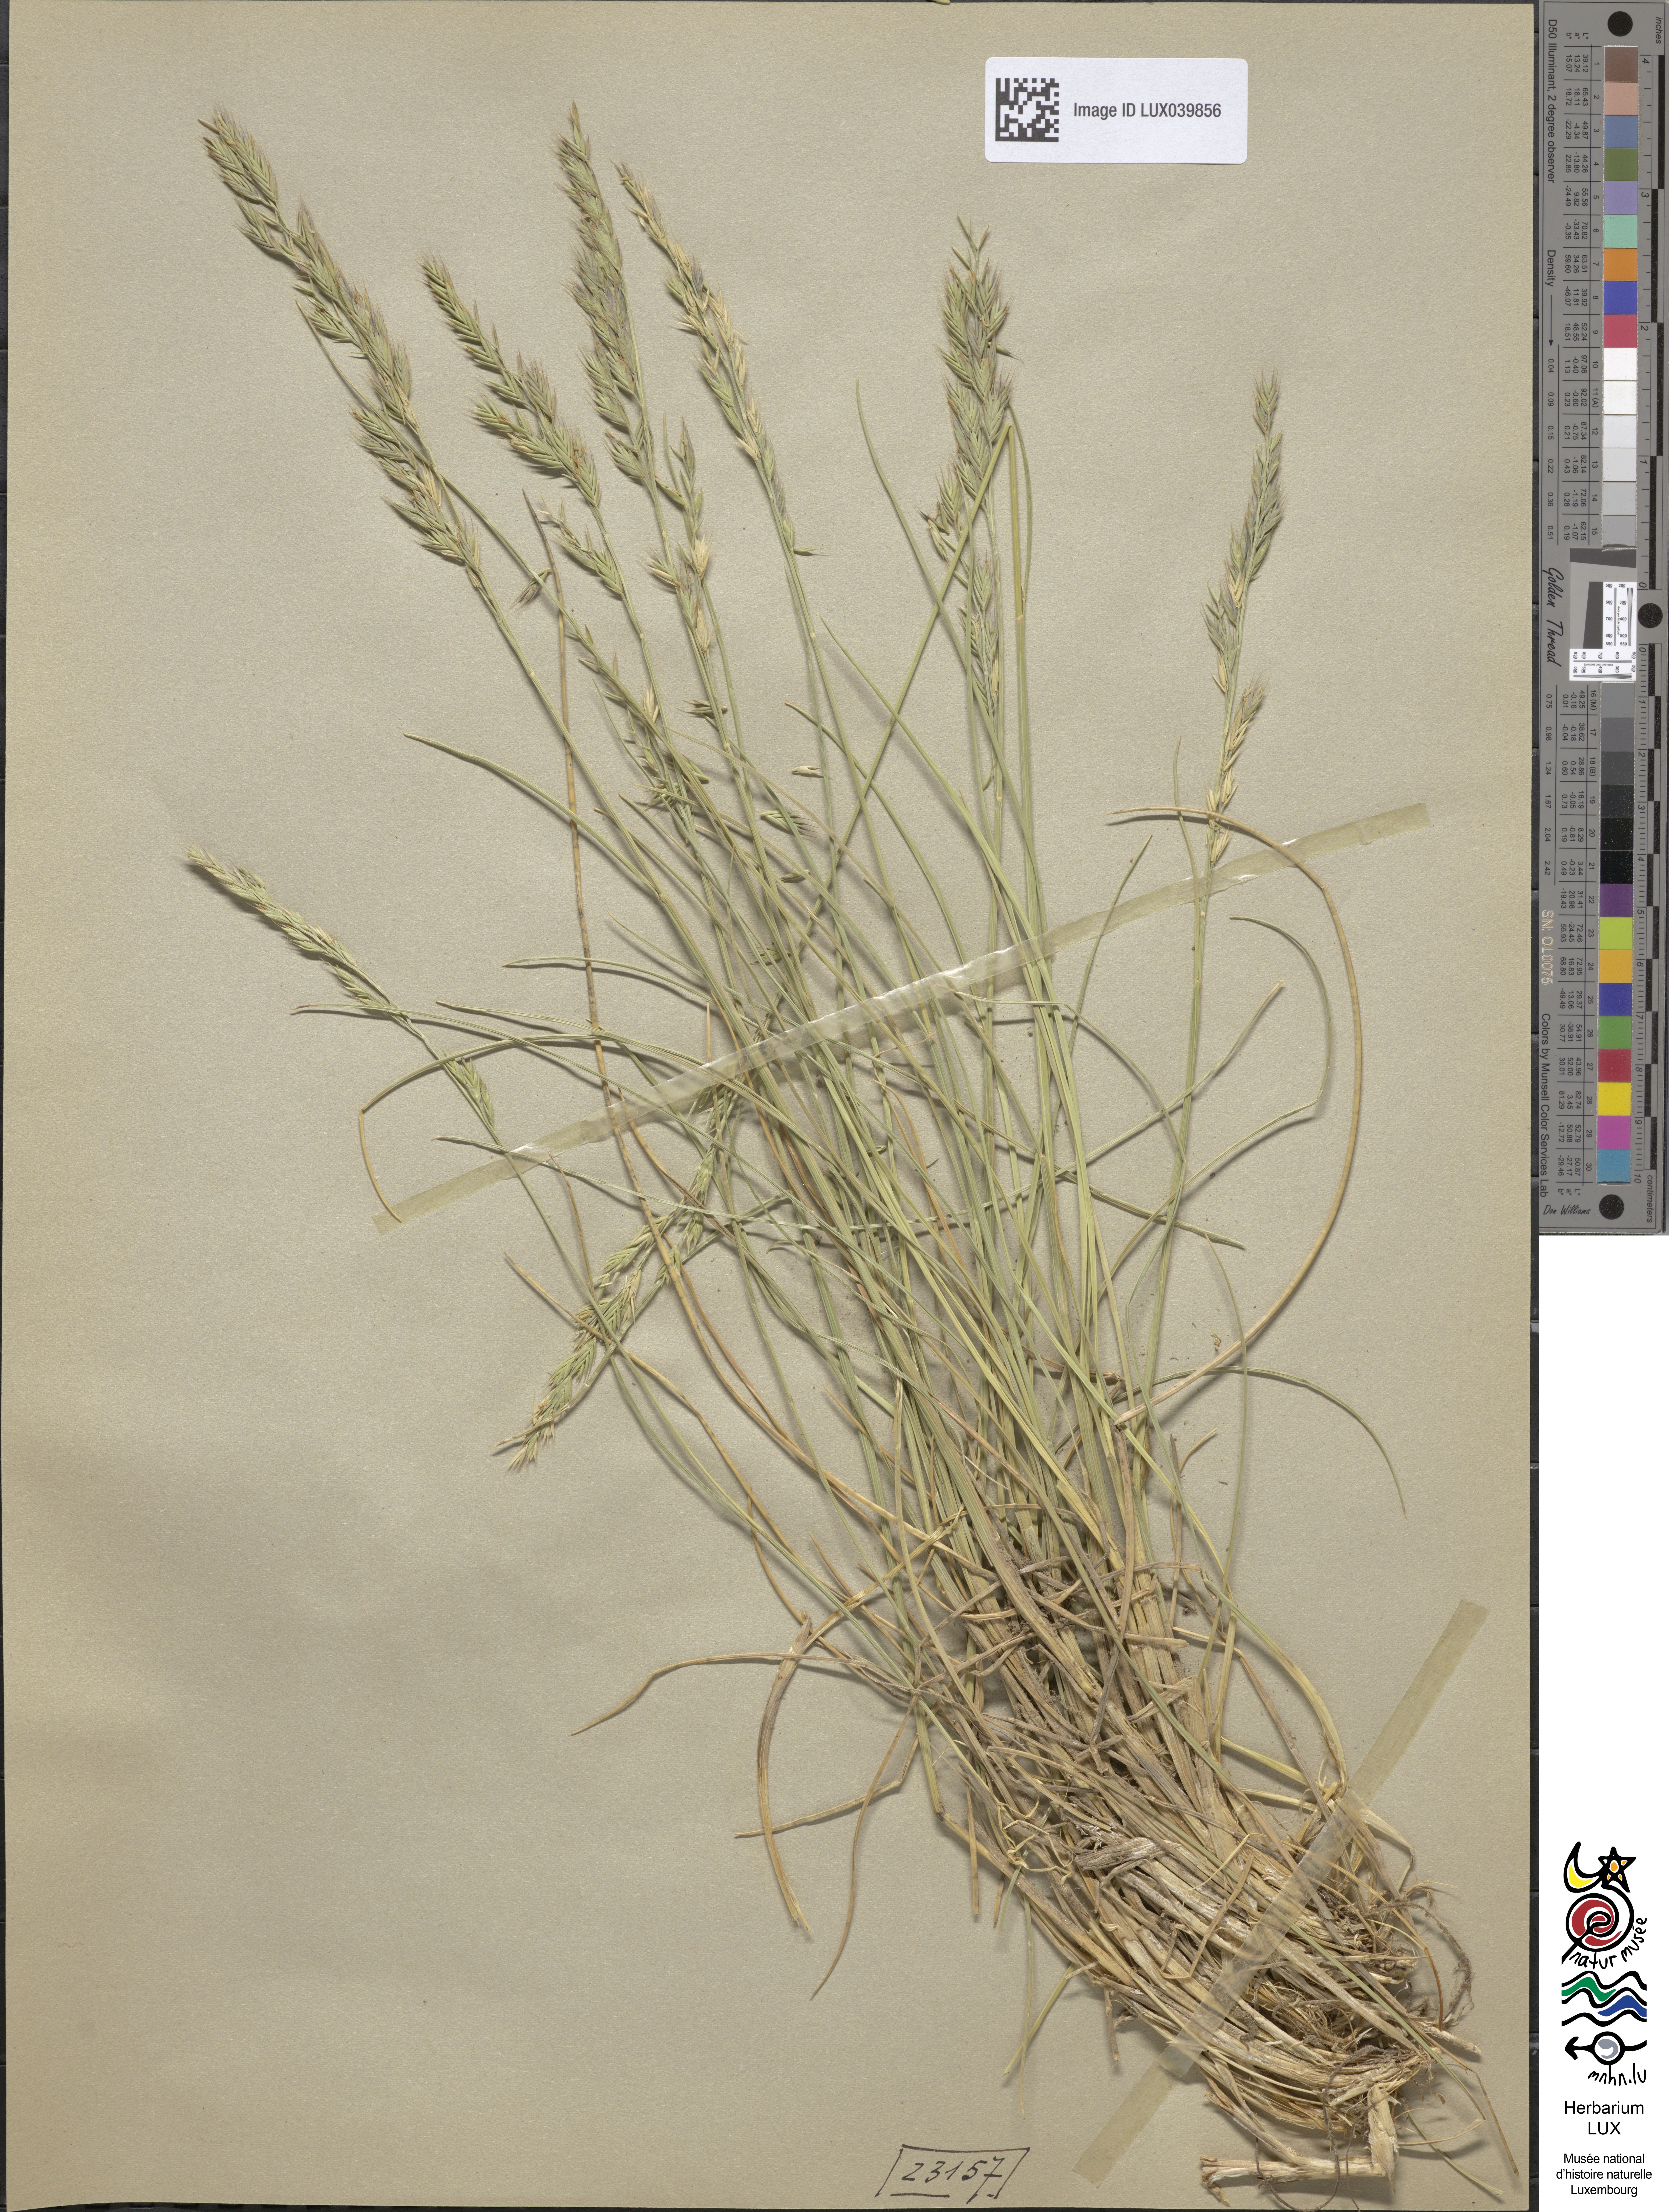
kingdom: Plantae
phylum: Tracheophyta
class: Liliopsida
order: Poales
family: Poaceae
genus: Festuca
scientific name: Festuca rubra
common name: Red fescue
